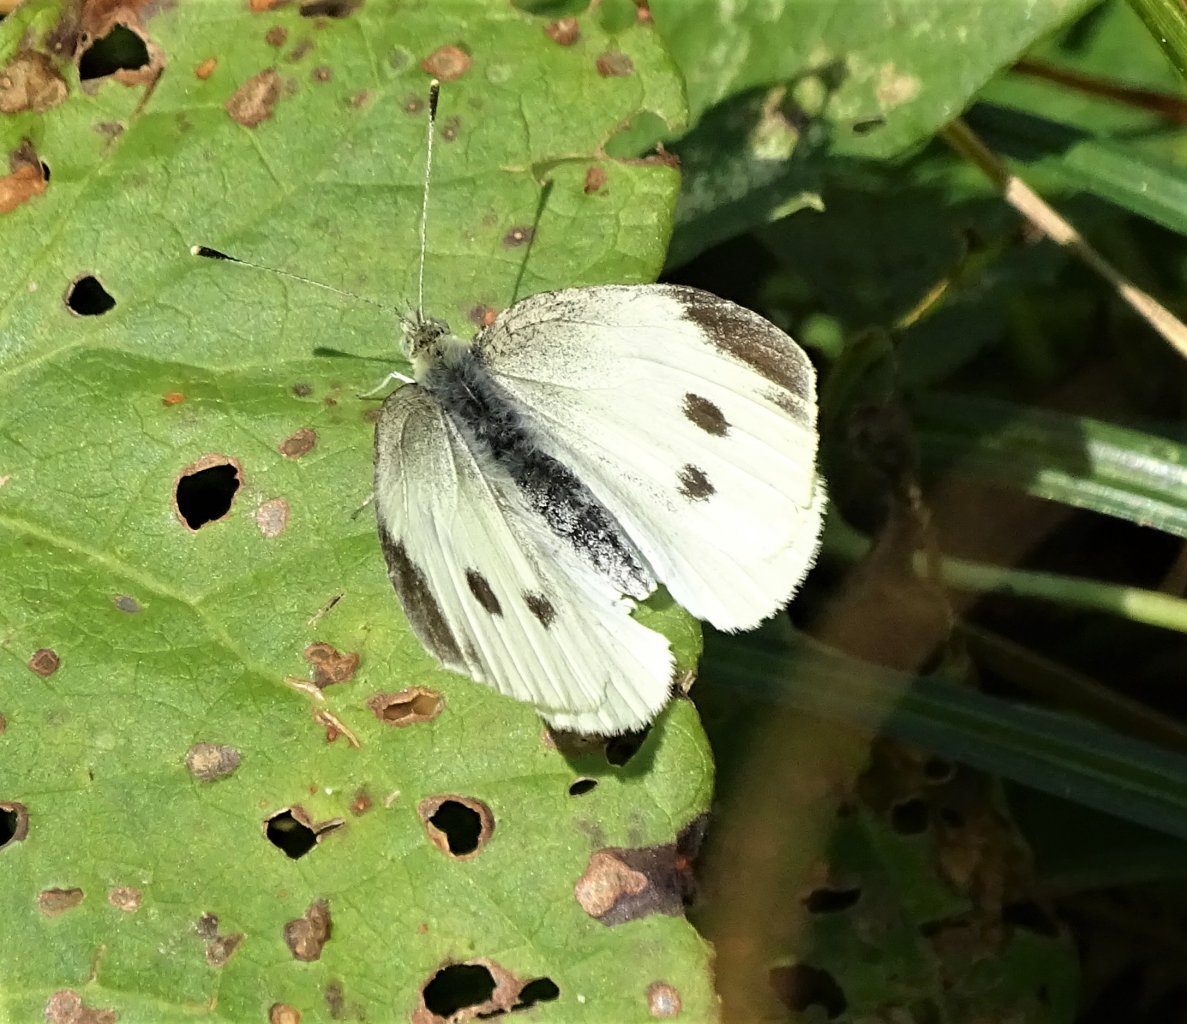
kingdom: Animalia
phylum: Arthropoda
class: Insecta
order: Lepidoptera
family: Pieridae
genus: Pieris
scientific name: Pieris rapae
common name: Cabbage White
